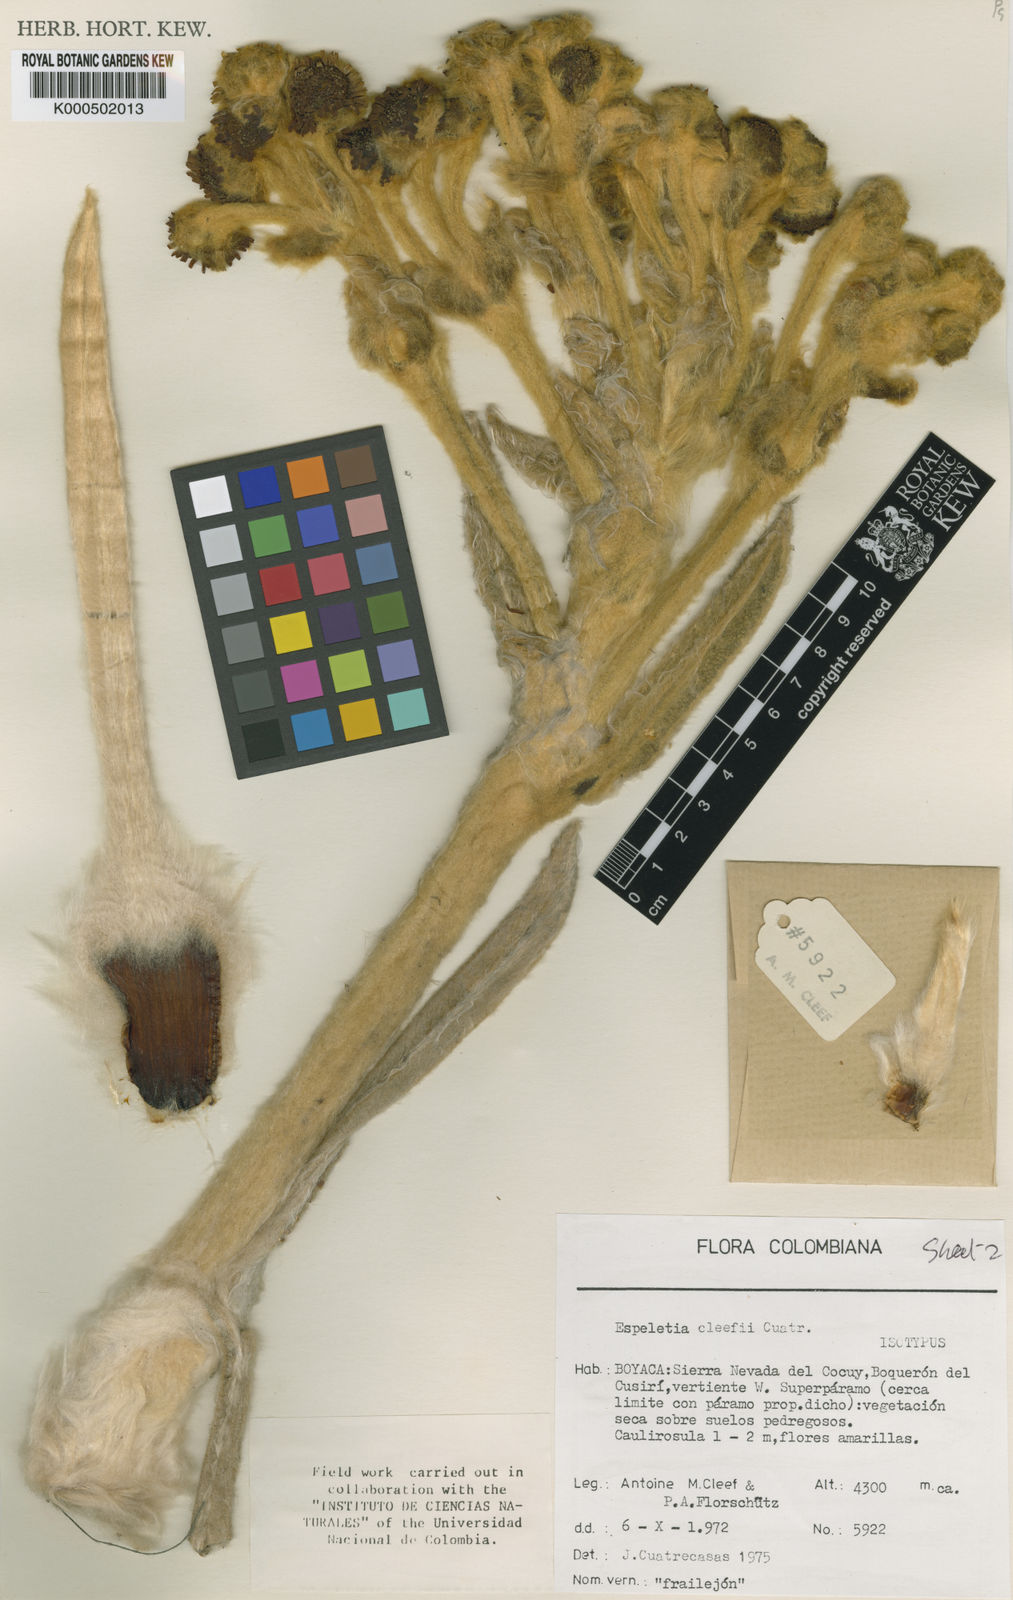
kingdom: Plantae
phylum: Tracheophyta
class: Magnoliopsida
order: Asterales
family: Asteraceae
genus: Espeletia
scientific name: Espeletia cleefii
